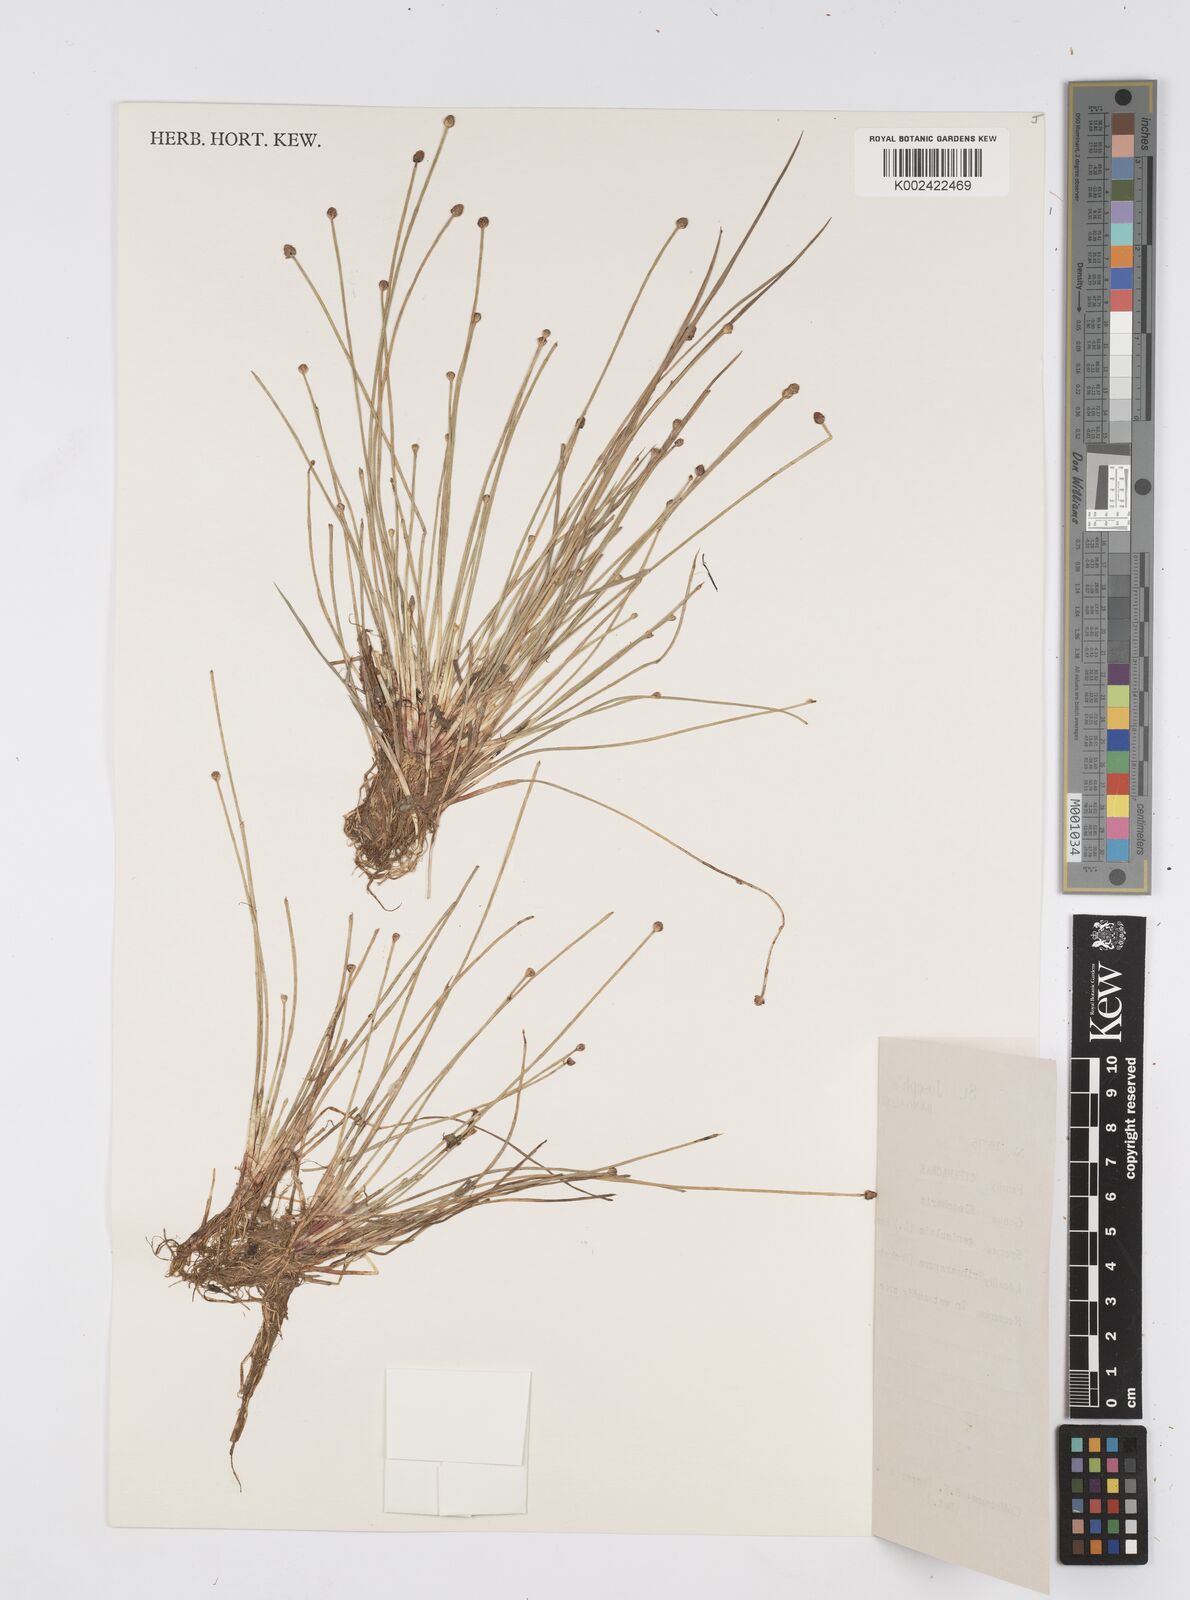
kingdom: Plantae
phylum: Tracheophyta
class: Liliopsida
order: Poales
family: Cyperaceae
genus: Eleocharis
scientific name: Eleocharis geniculata
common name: Canada spikesedge
